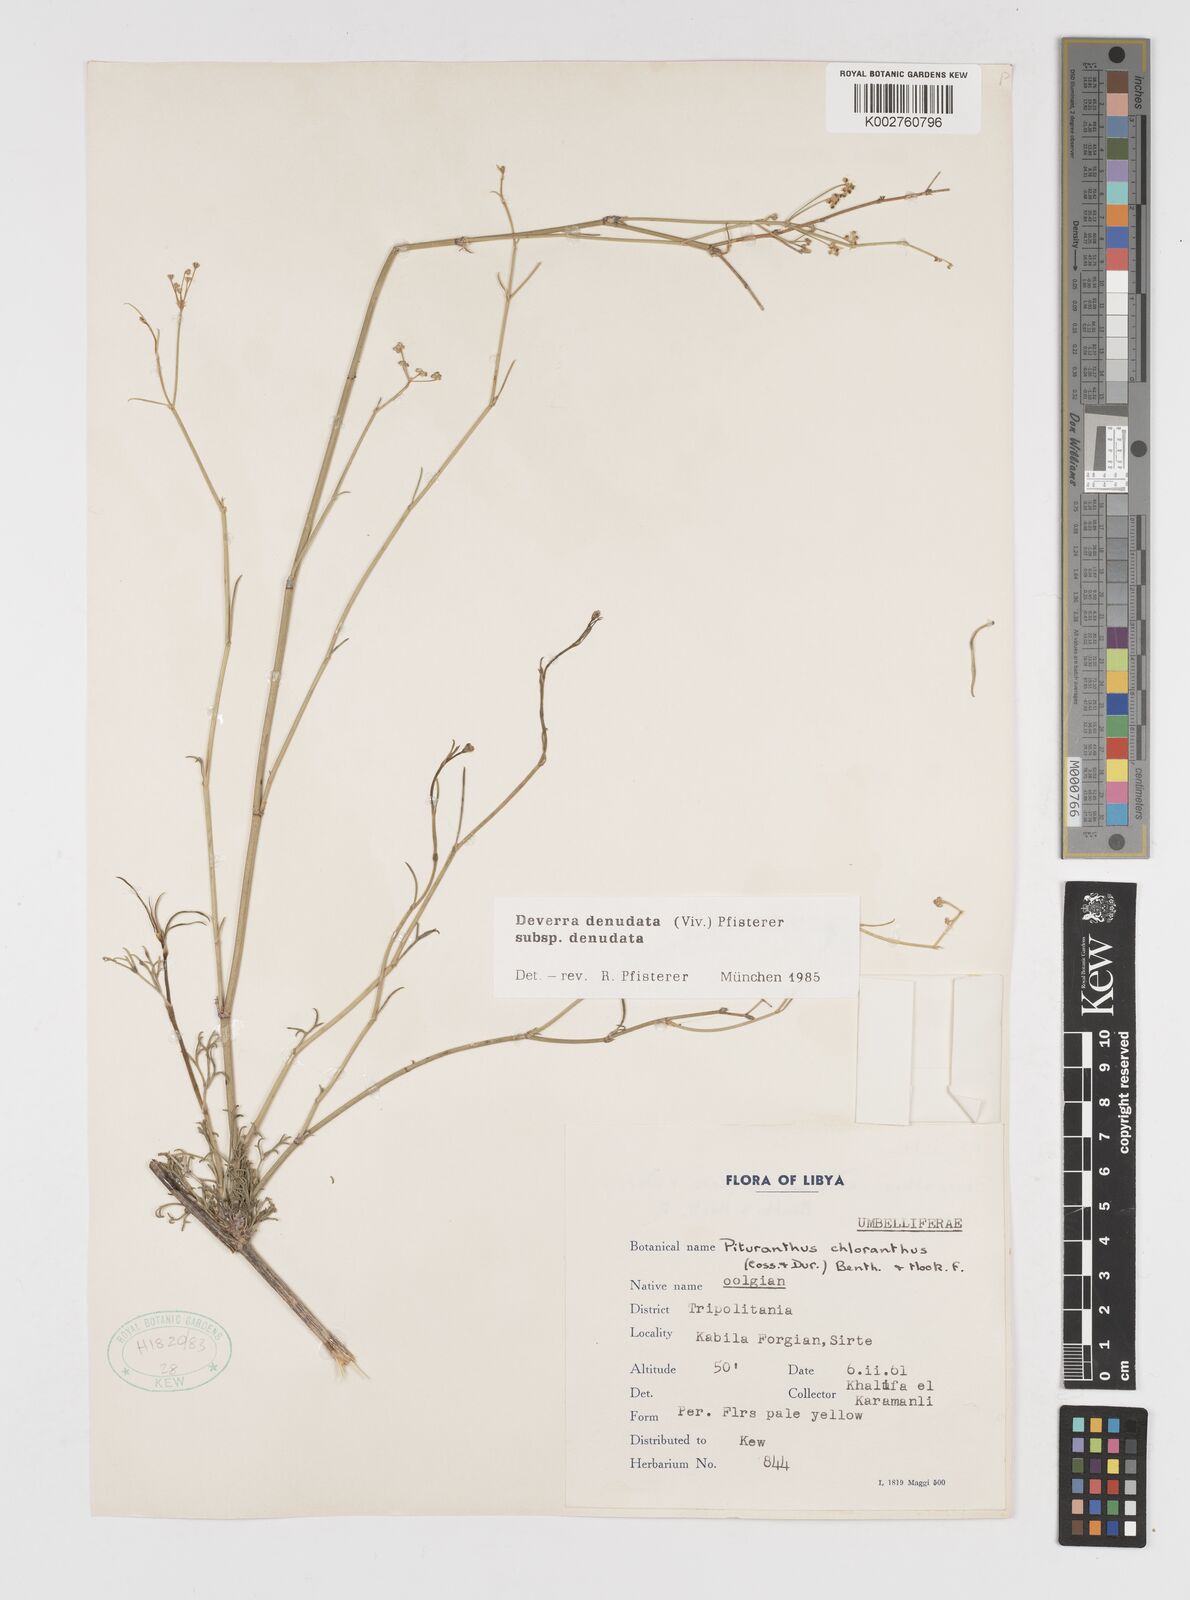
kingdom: Plantae
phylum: Tracheophyta
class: Magnoliopsida
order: Apiales
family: Apiaceae
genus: Deverra
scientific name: Deverra denudata
